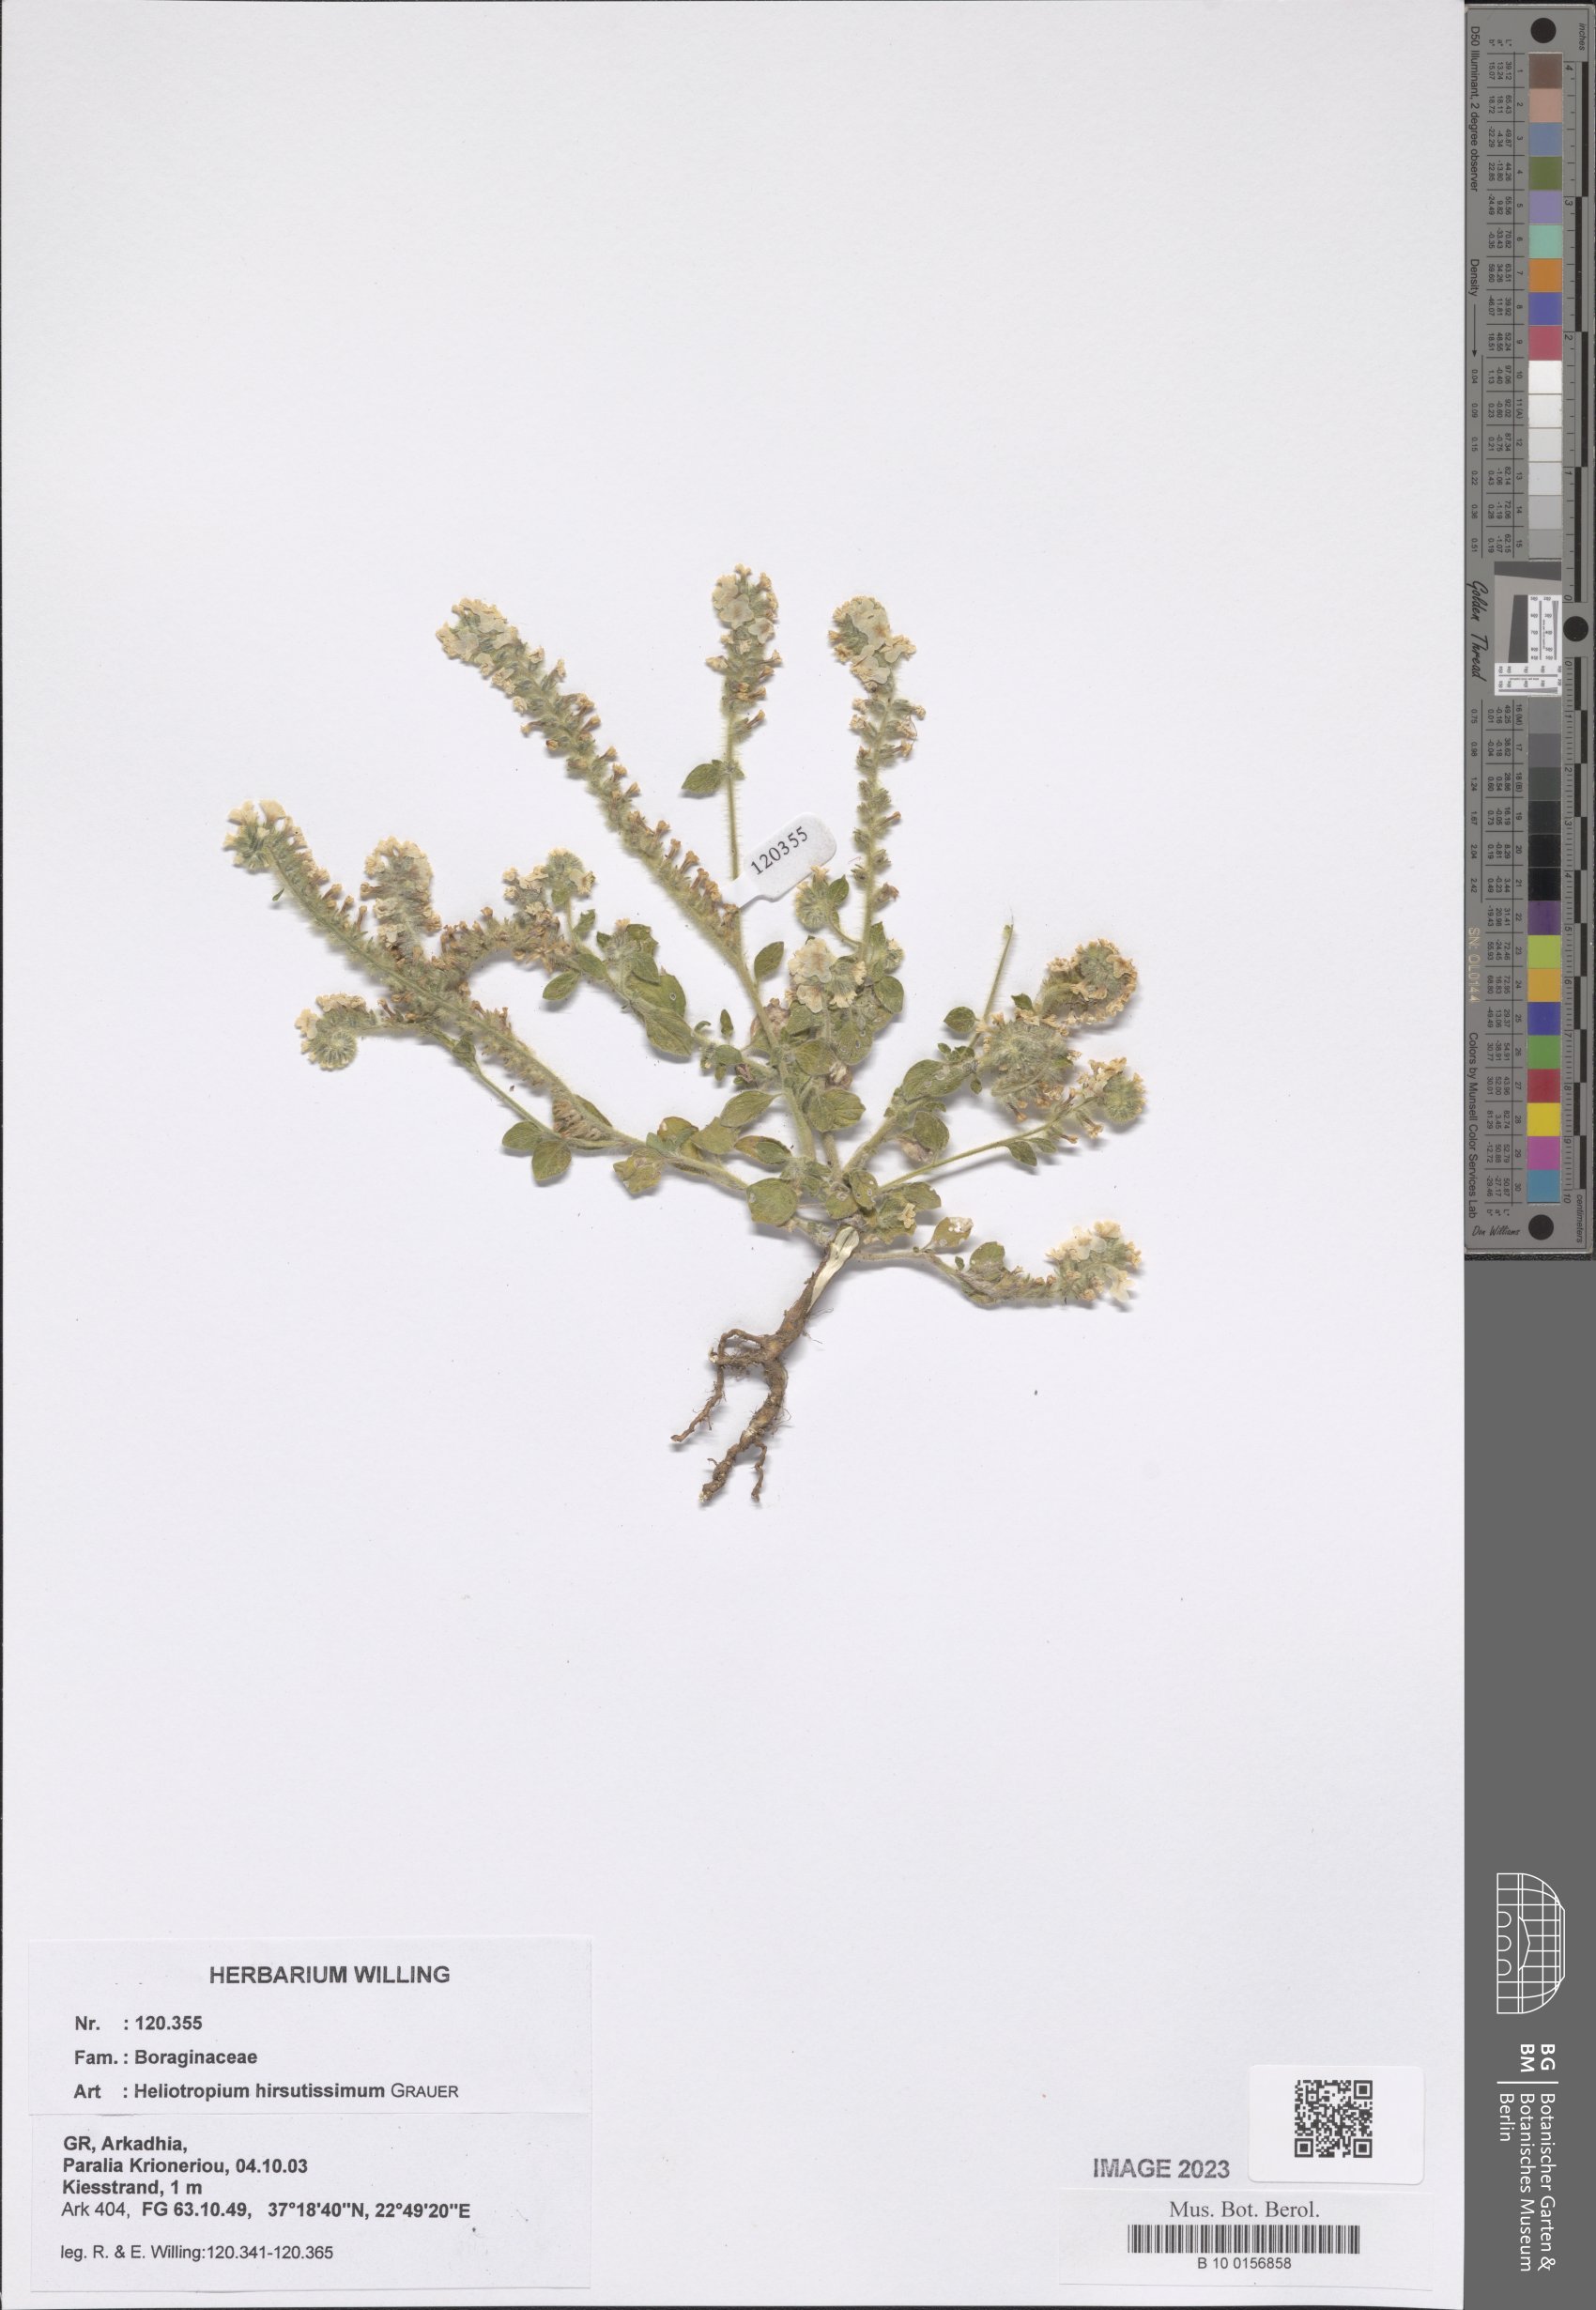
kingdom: Plantae
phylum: Tracheophyta
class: Magnoliopsida
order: Boraginales
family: Heliotropiaceae
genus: Heliotropium
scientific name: Heliotropium hirsutissimum
